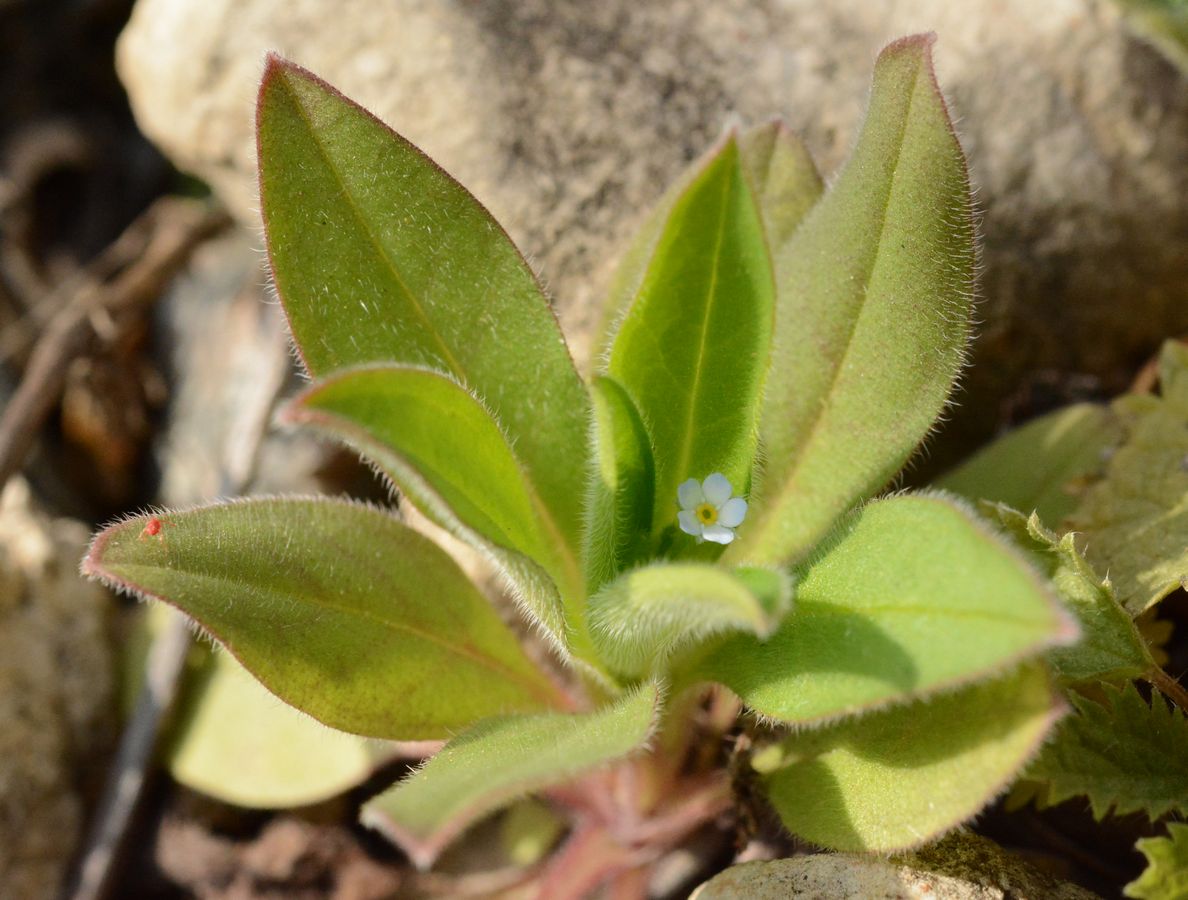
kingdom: Plantae
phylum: Tracheophyta
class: Magnoliopsida
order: Boraginales
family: Boraginaceae
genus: Myosotis
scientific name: Myosotis stricta
